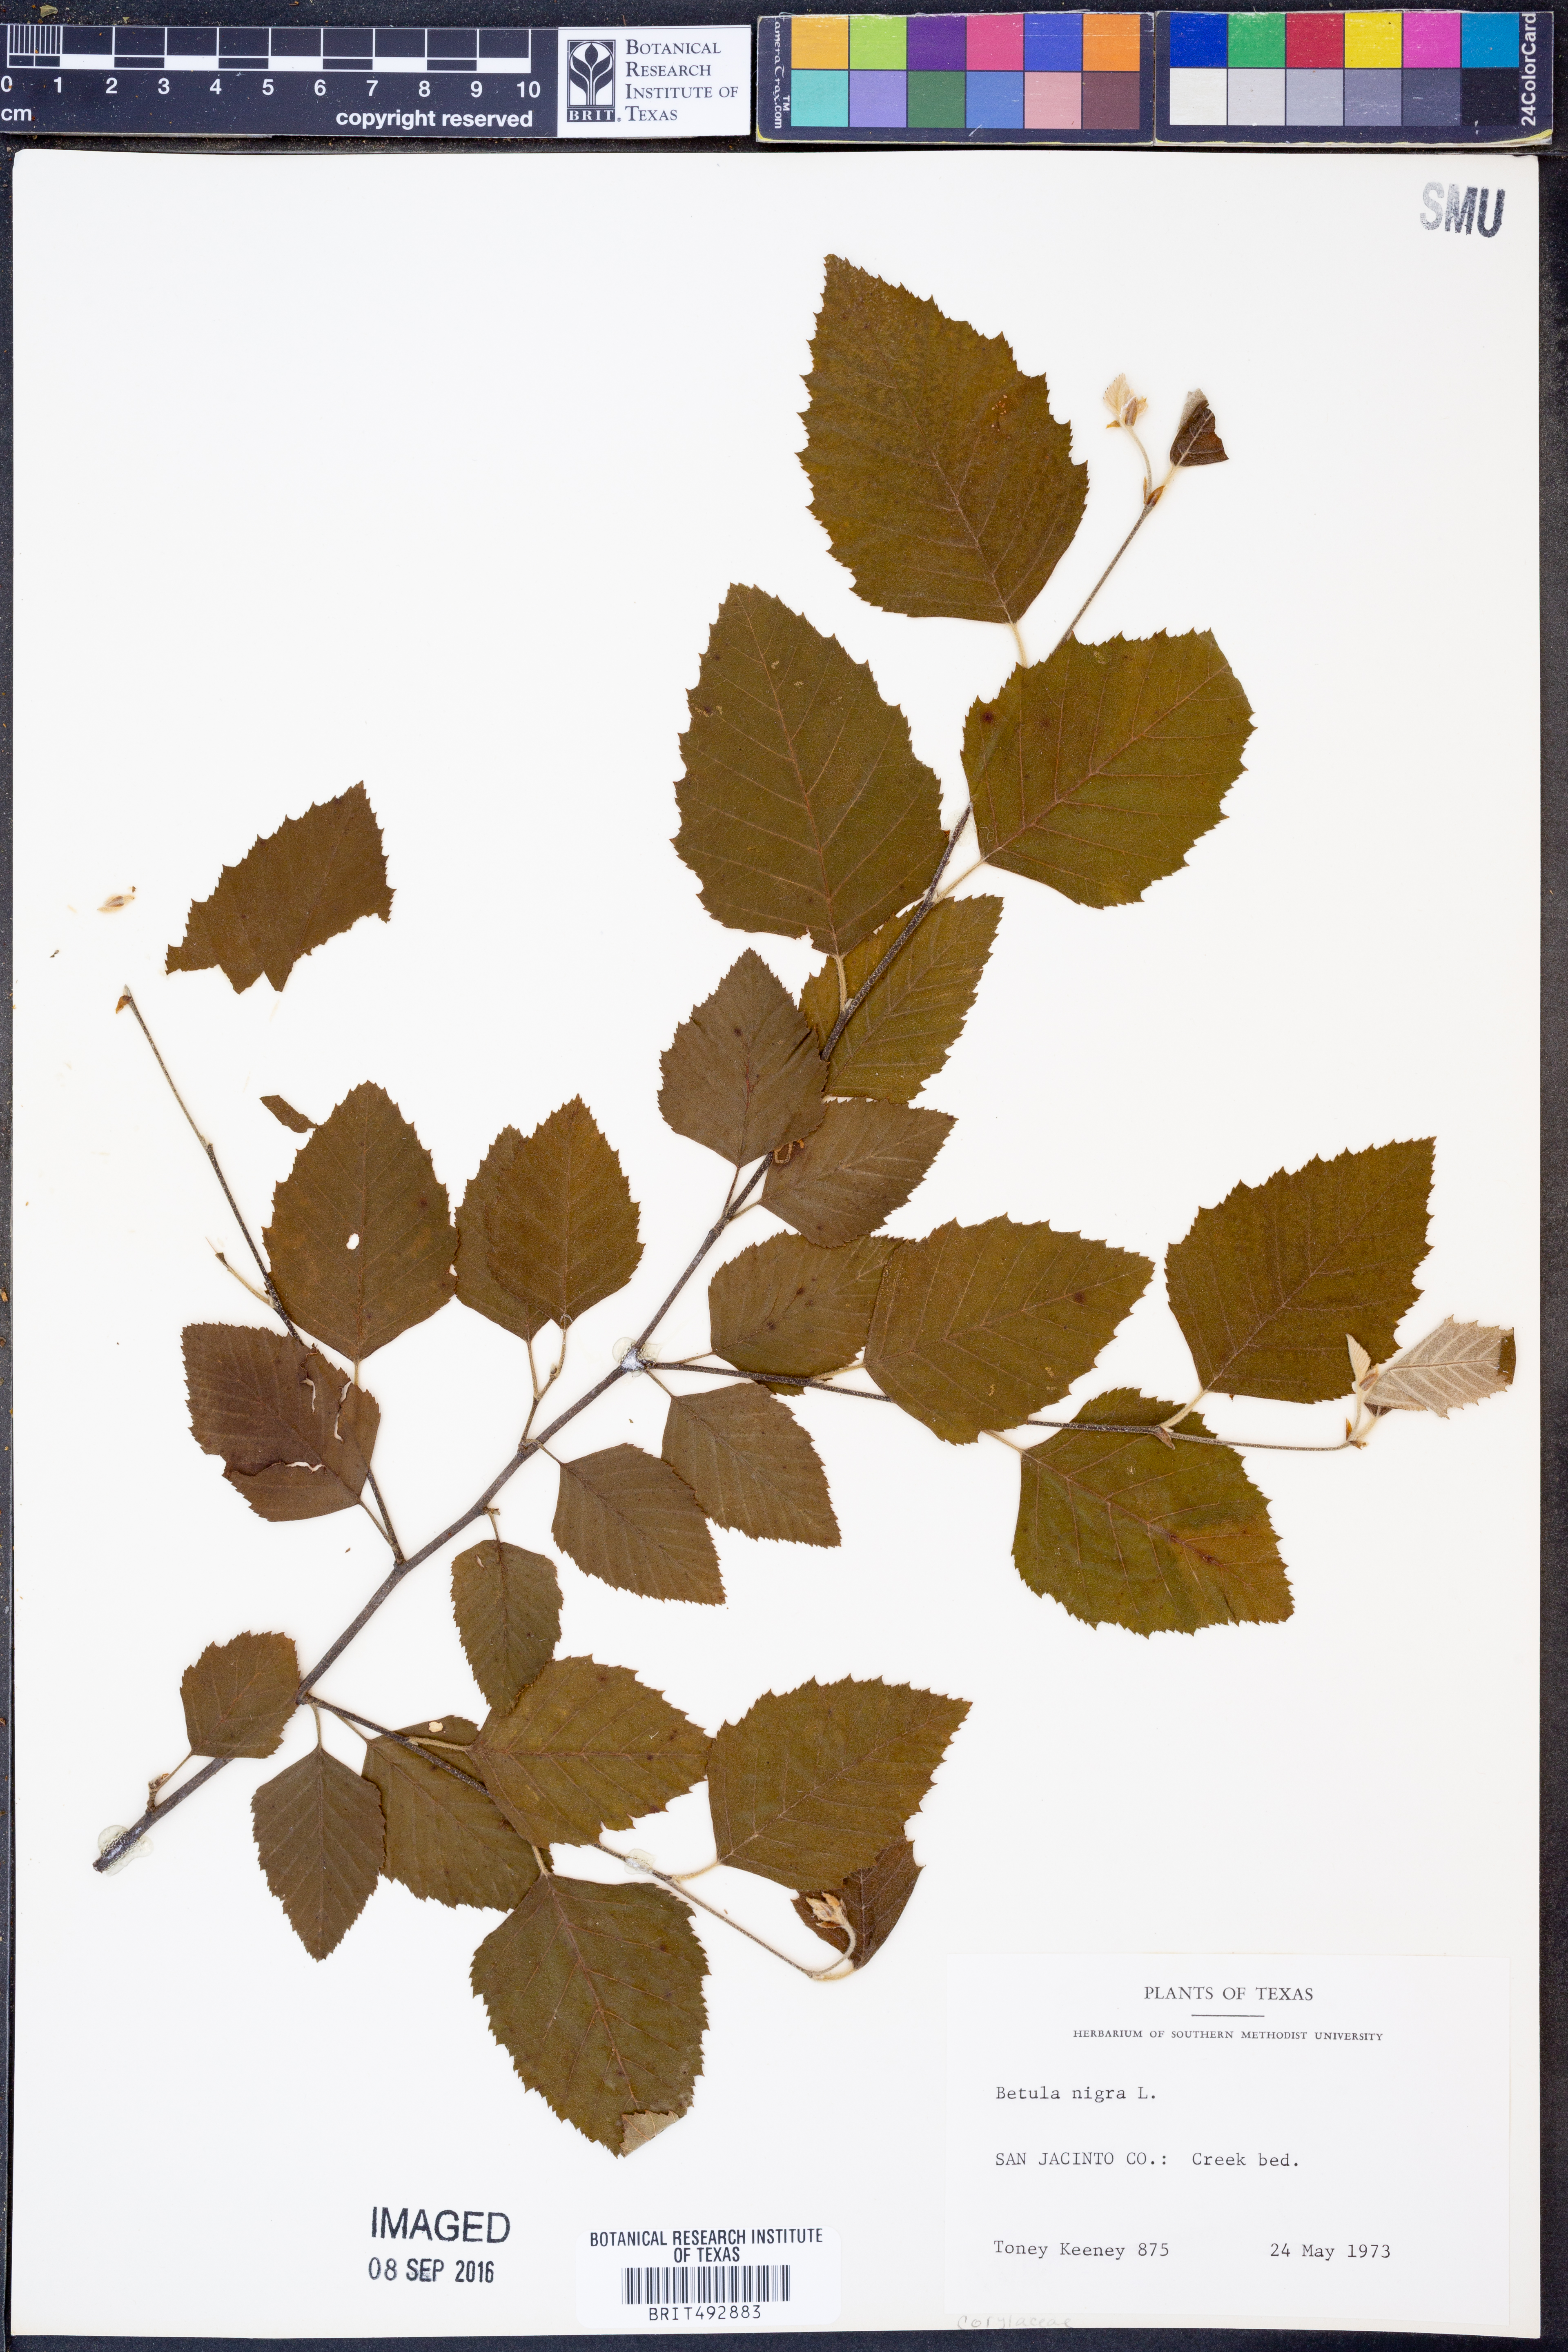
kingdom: Plantae
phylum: Tracheophyta
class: Magnoliopsida
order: Fagales
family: Betulaceae
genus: Betula
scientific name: Betula nigra
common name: Black birch
